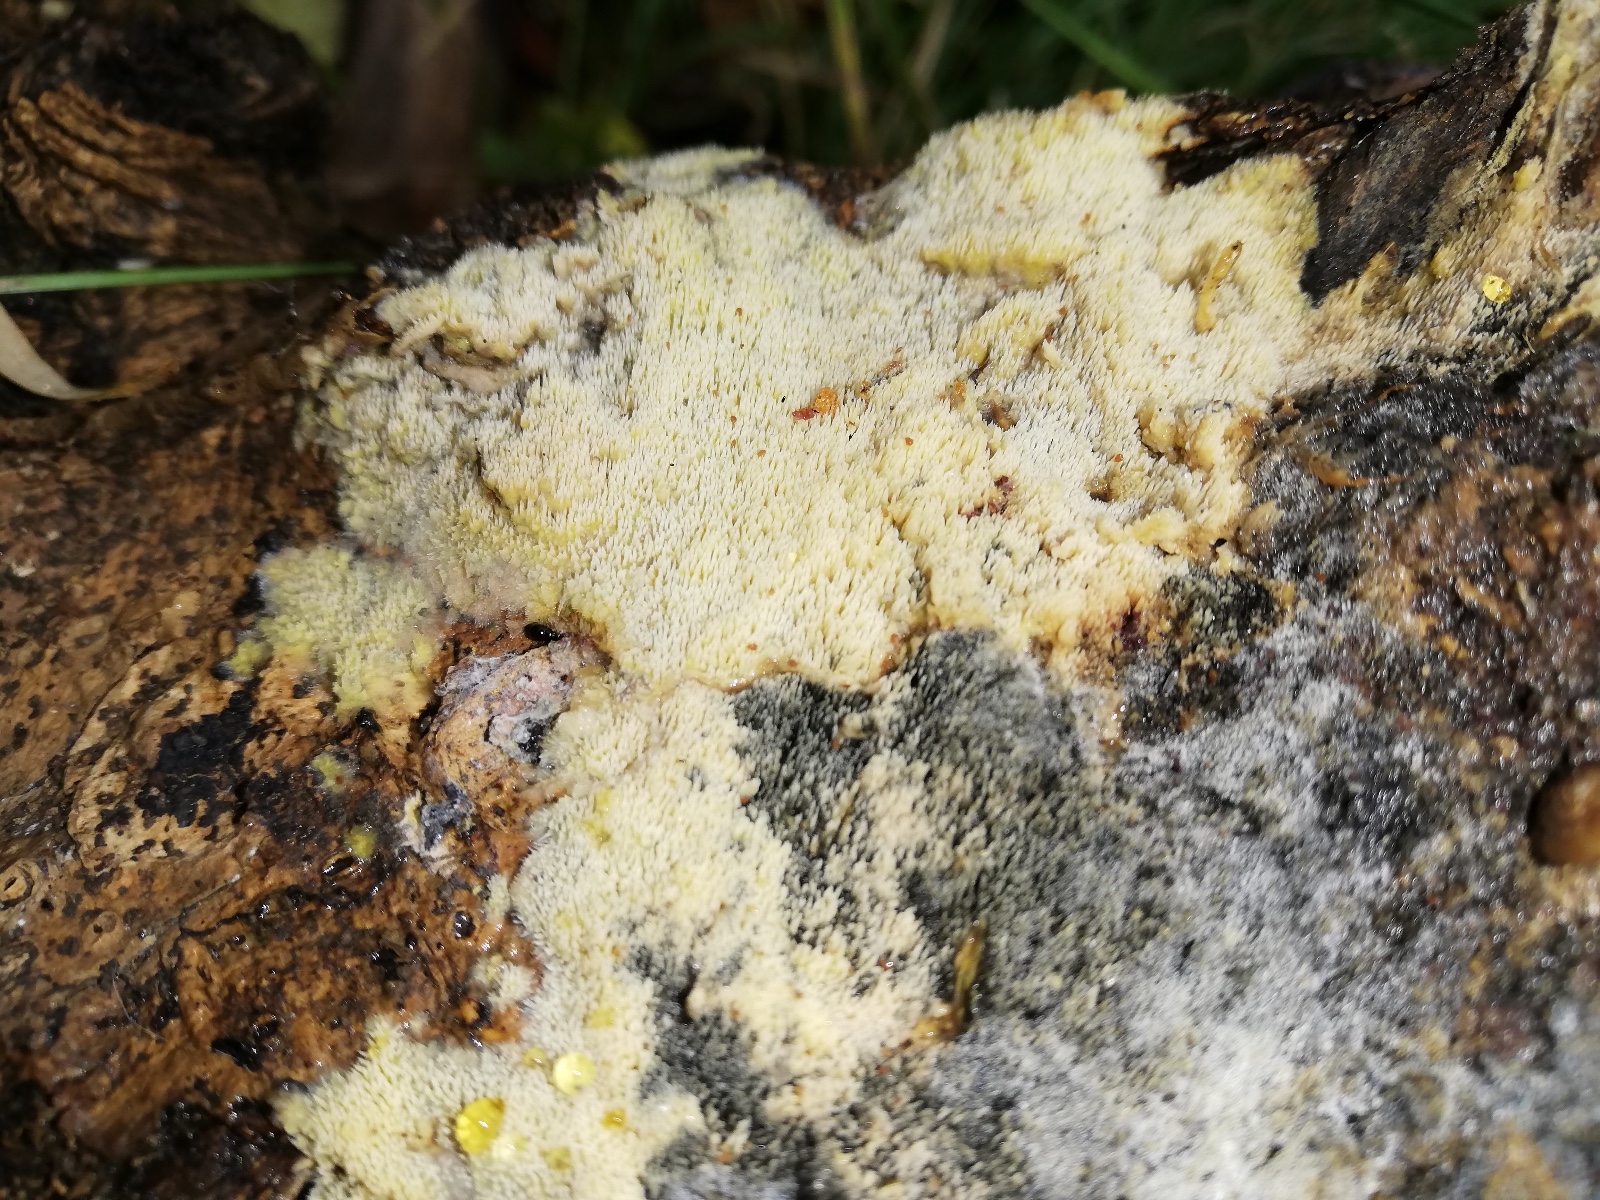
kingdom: Fungi
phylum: Basidiomycota
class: Agaricomycetes
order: Polyporales
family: Meruliaceae
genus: Mycoacia
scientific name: Mycoacia uda
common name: citrongul vokspig
